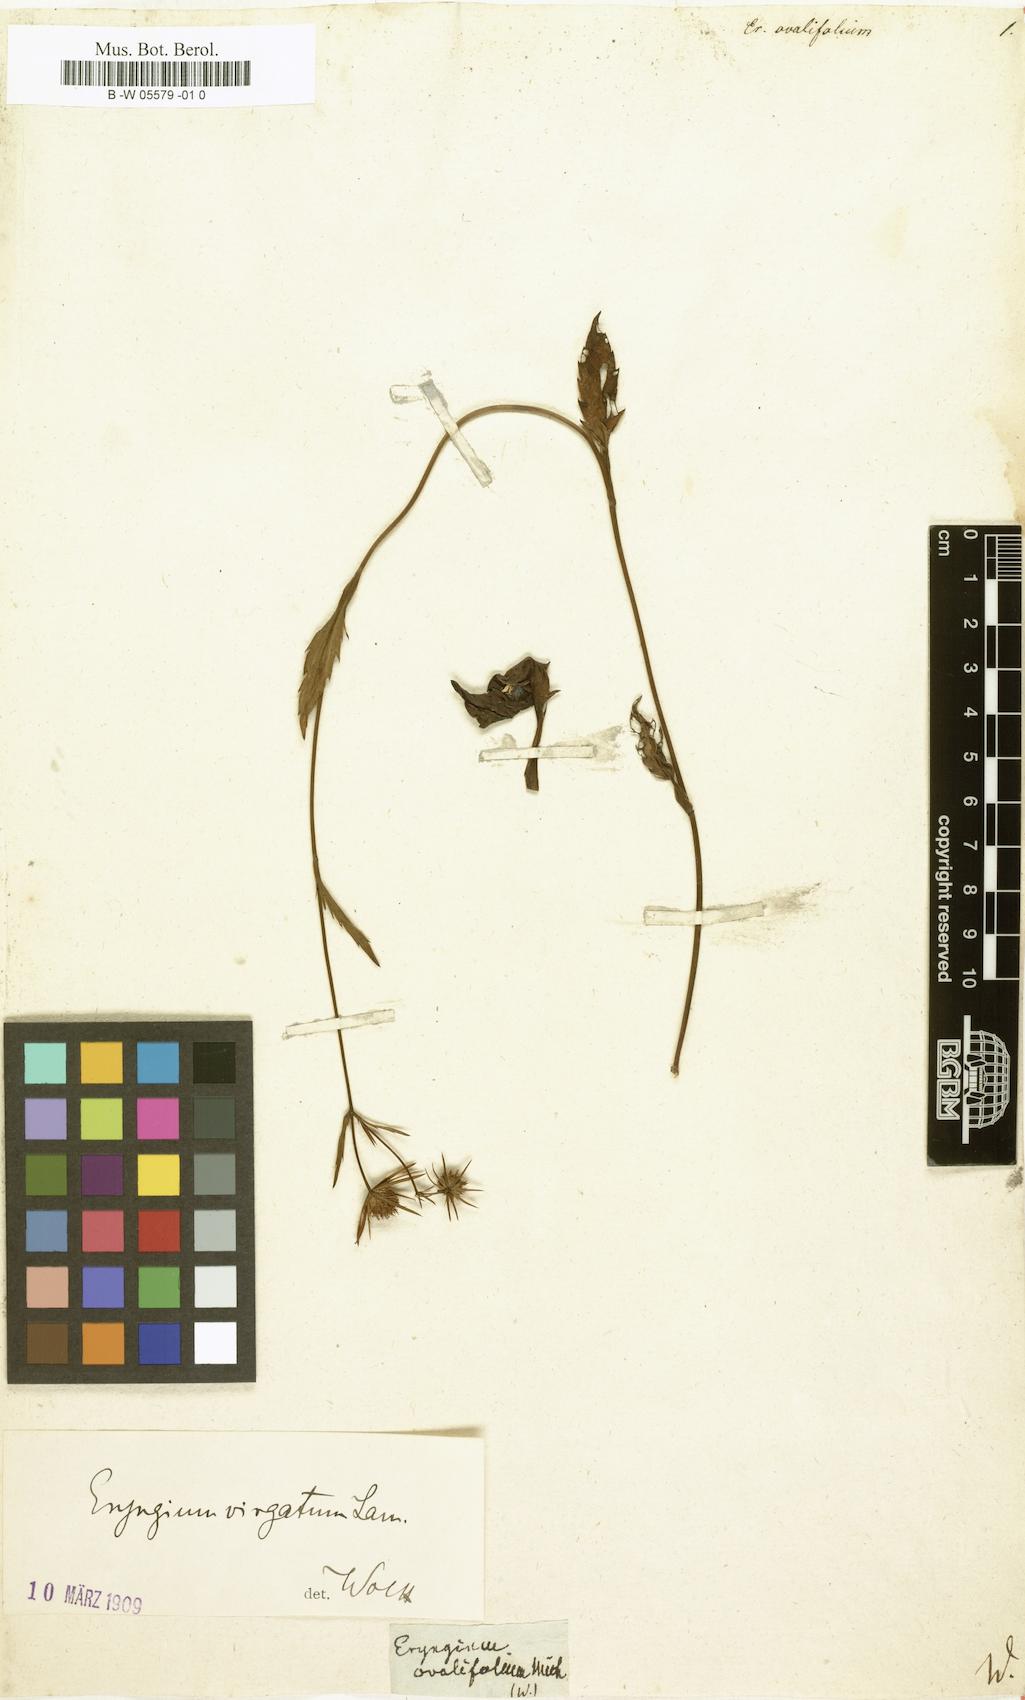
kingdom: Plantae
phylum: Tracheophyta
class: Magnoliopsida
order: Apiales
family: Apiaceae
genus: Eryngium
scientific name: Eryngium integrifolium
